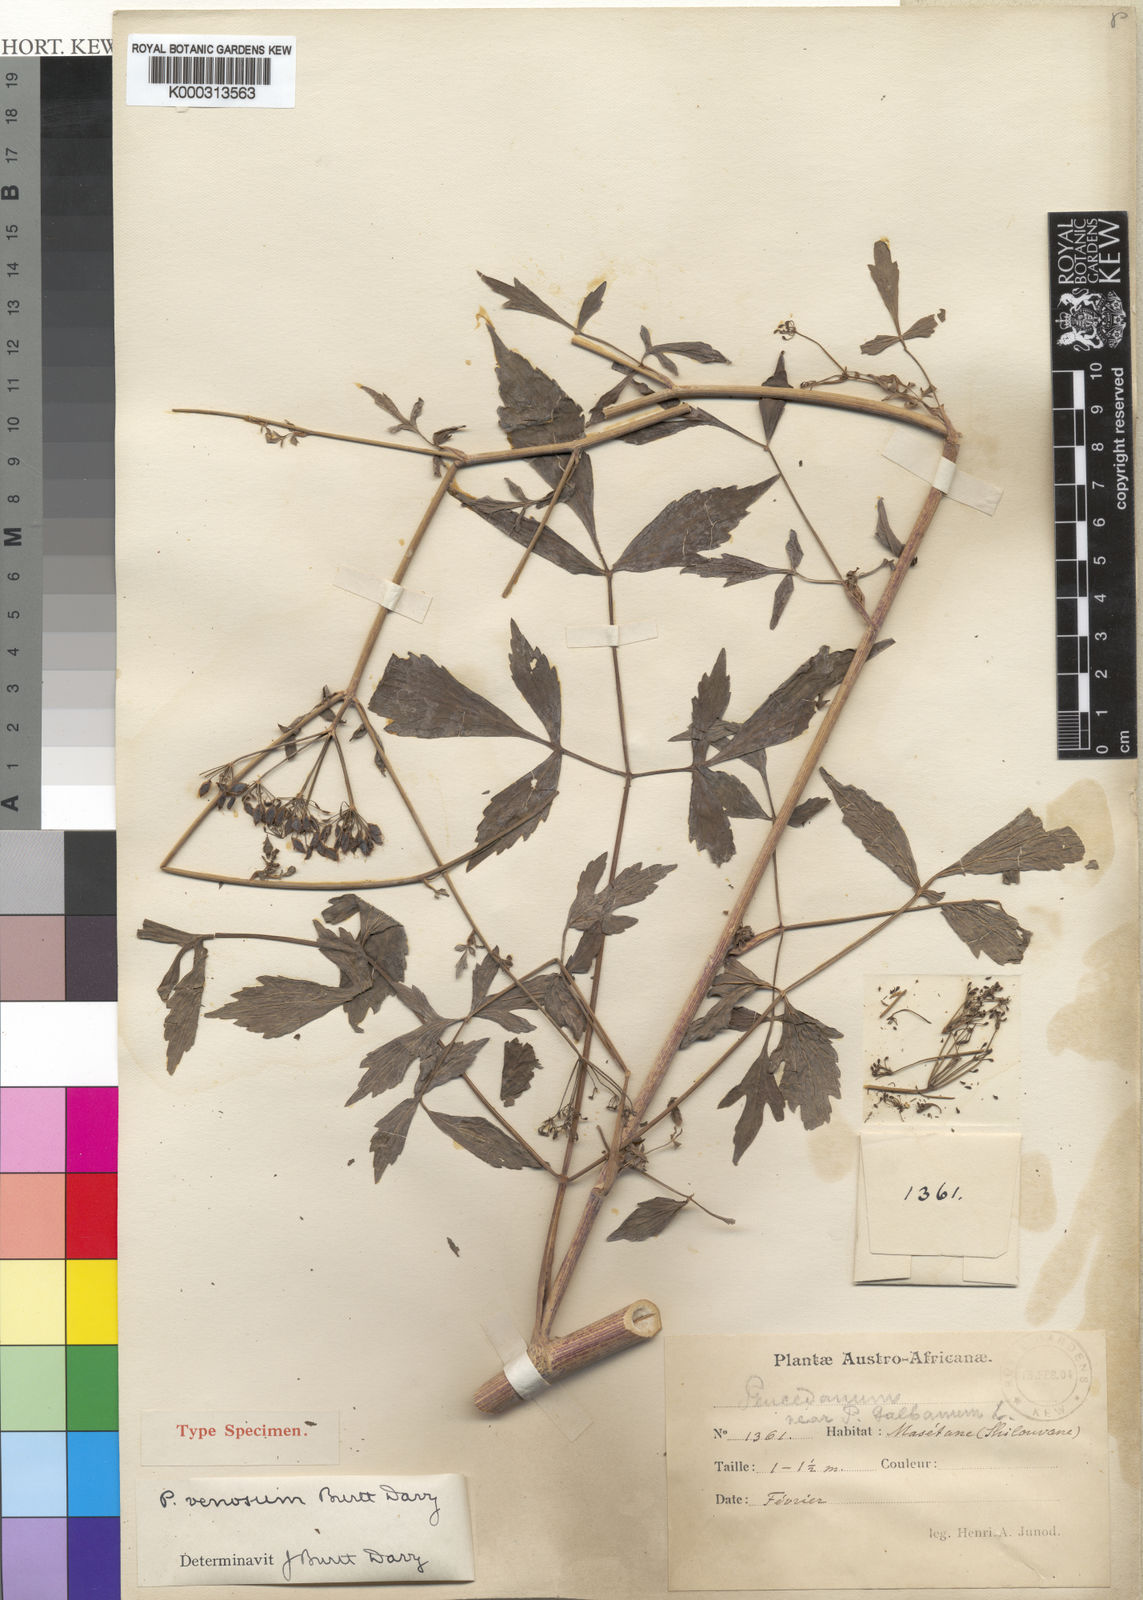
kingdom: Plantae
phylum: Tracheophyta
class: Magnoliopsida
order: Apiales
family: Apiaceae
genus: Lefebvrea
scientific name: Lefebvrea
